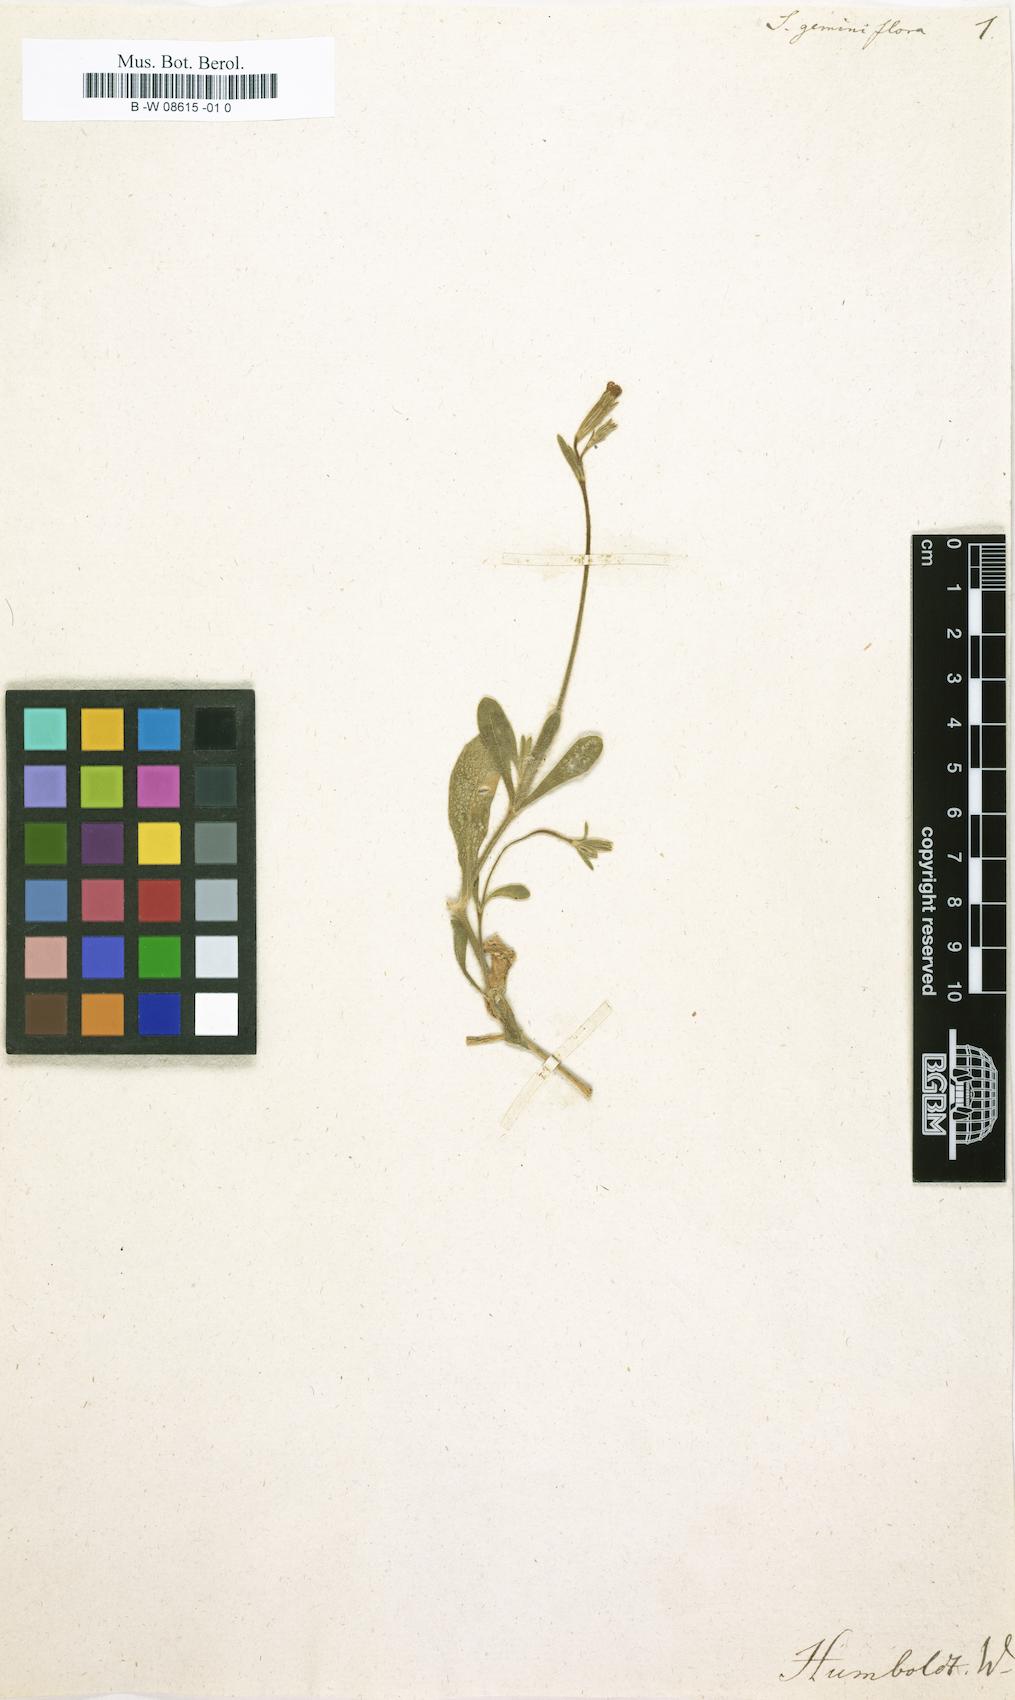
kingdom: Plantae
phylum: Tracheophyta
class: Magnoliopsida
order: Caryophyllales
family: Caryophyllaceae
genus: Silene
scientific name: Silene obtusifolia
